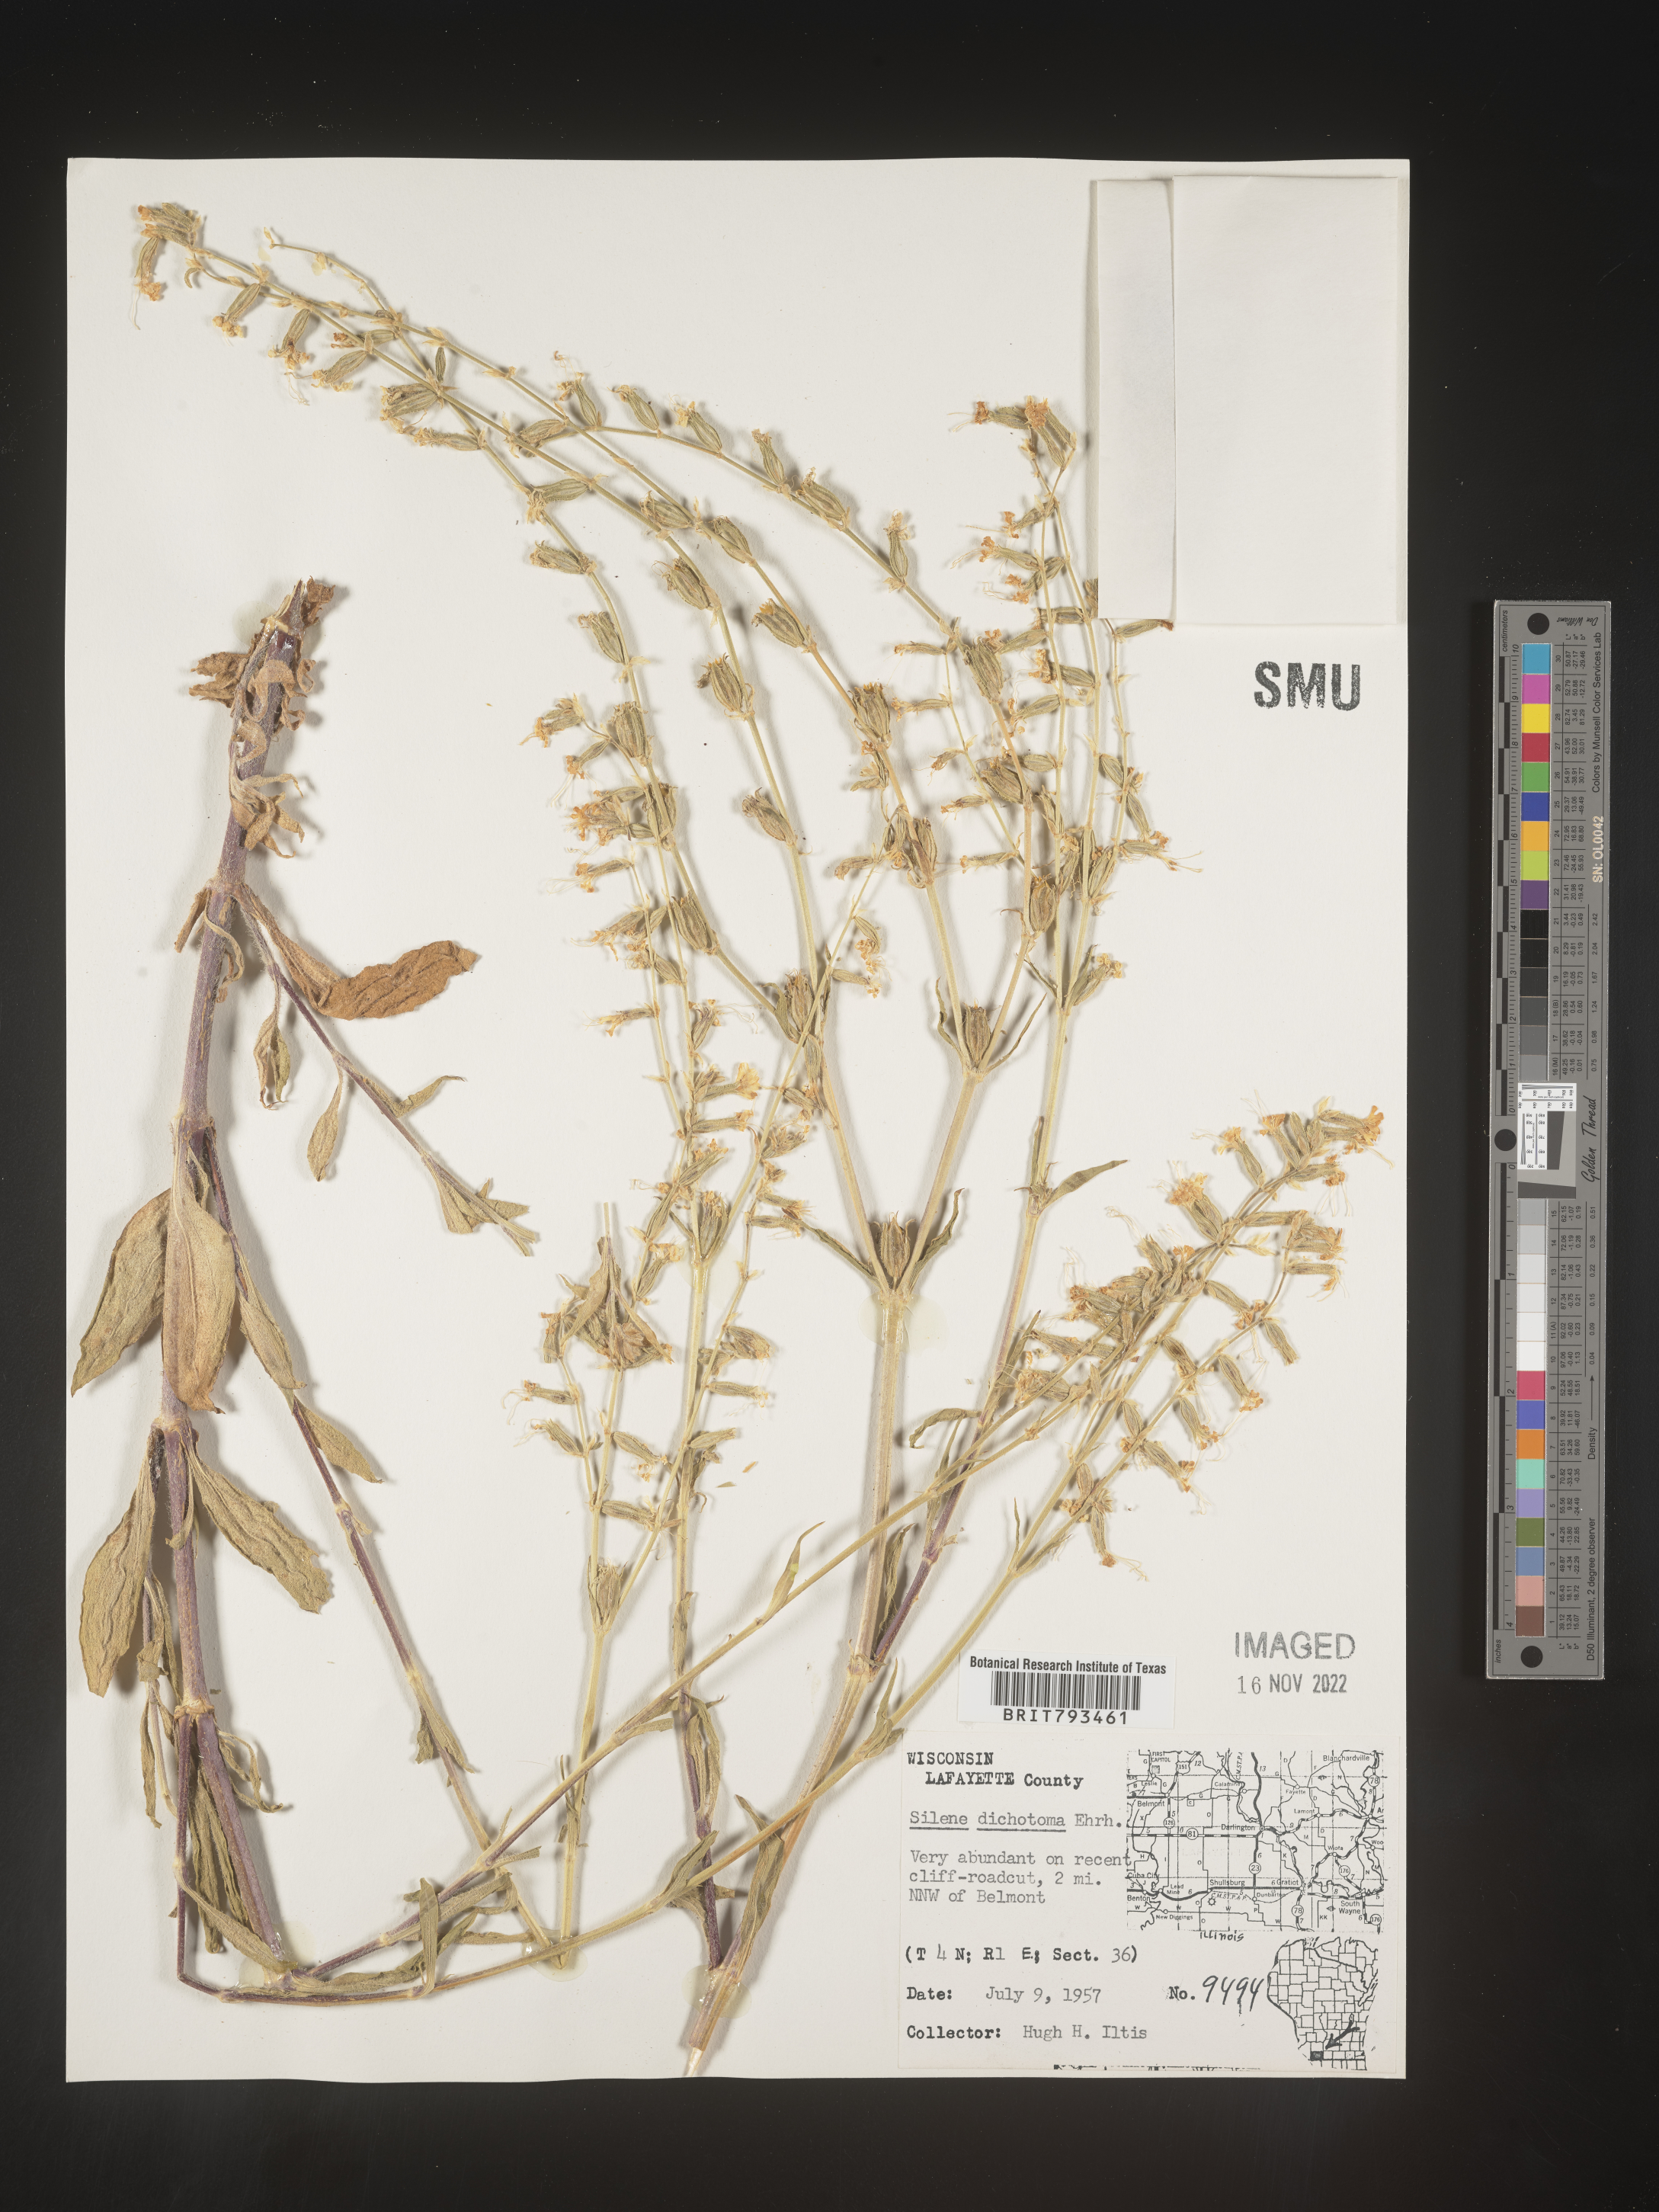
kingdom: Plantae
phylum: Tracheophyta
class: Magnoliopsida
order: Caryophyllales
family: Caryophyllaceae
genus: Silene
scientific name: Silene dichotoma
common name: Forked catchfly
